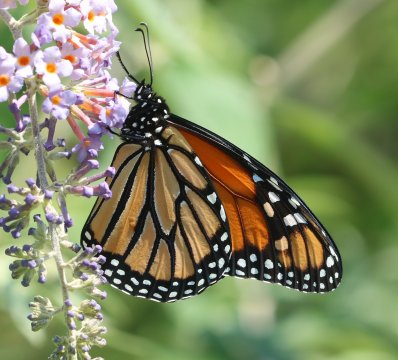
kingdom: Animalia
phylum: Arthropoda
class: Insecta
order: Lepidoptera
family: Nymphalidae
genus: Danaus
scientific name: Danaus plexippus
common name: Monarch
